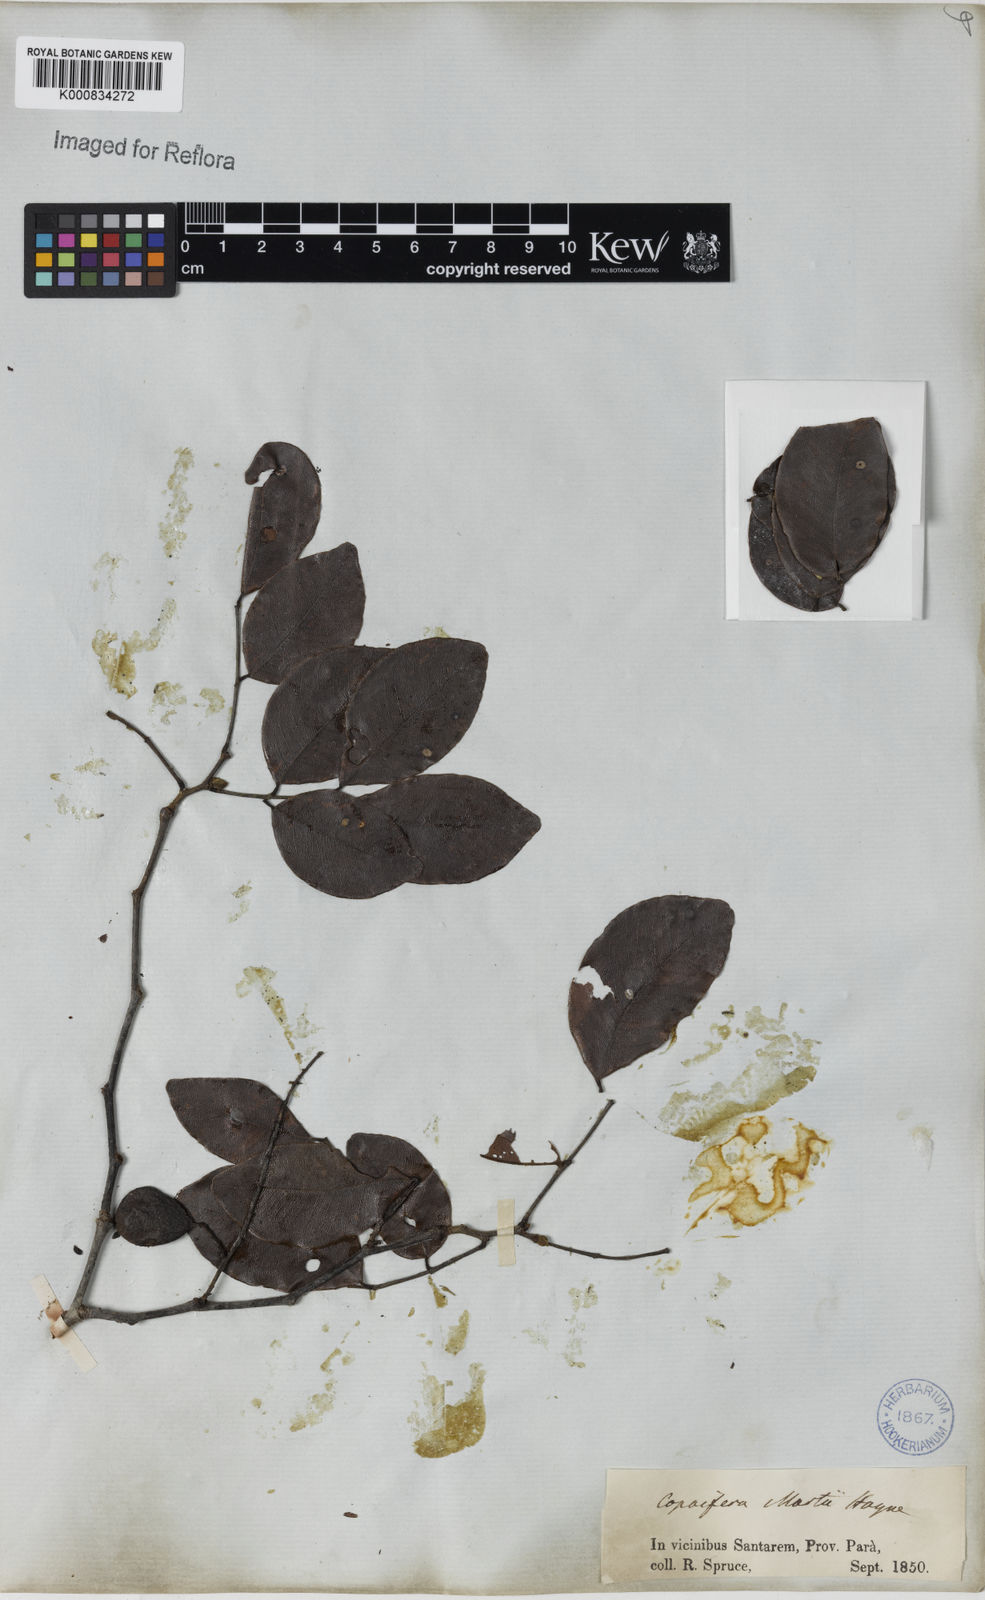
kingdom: Plantae
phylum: Tracheophyta
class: Magnoliopsida
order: Fabales
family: Fabaceae
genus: Copaifera
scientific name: Copaifera martii
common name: Copaiba
